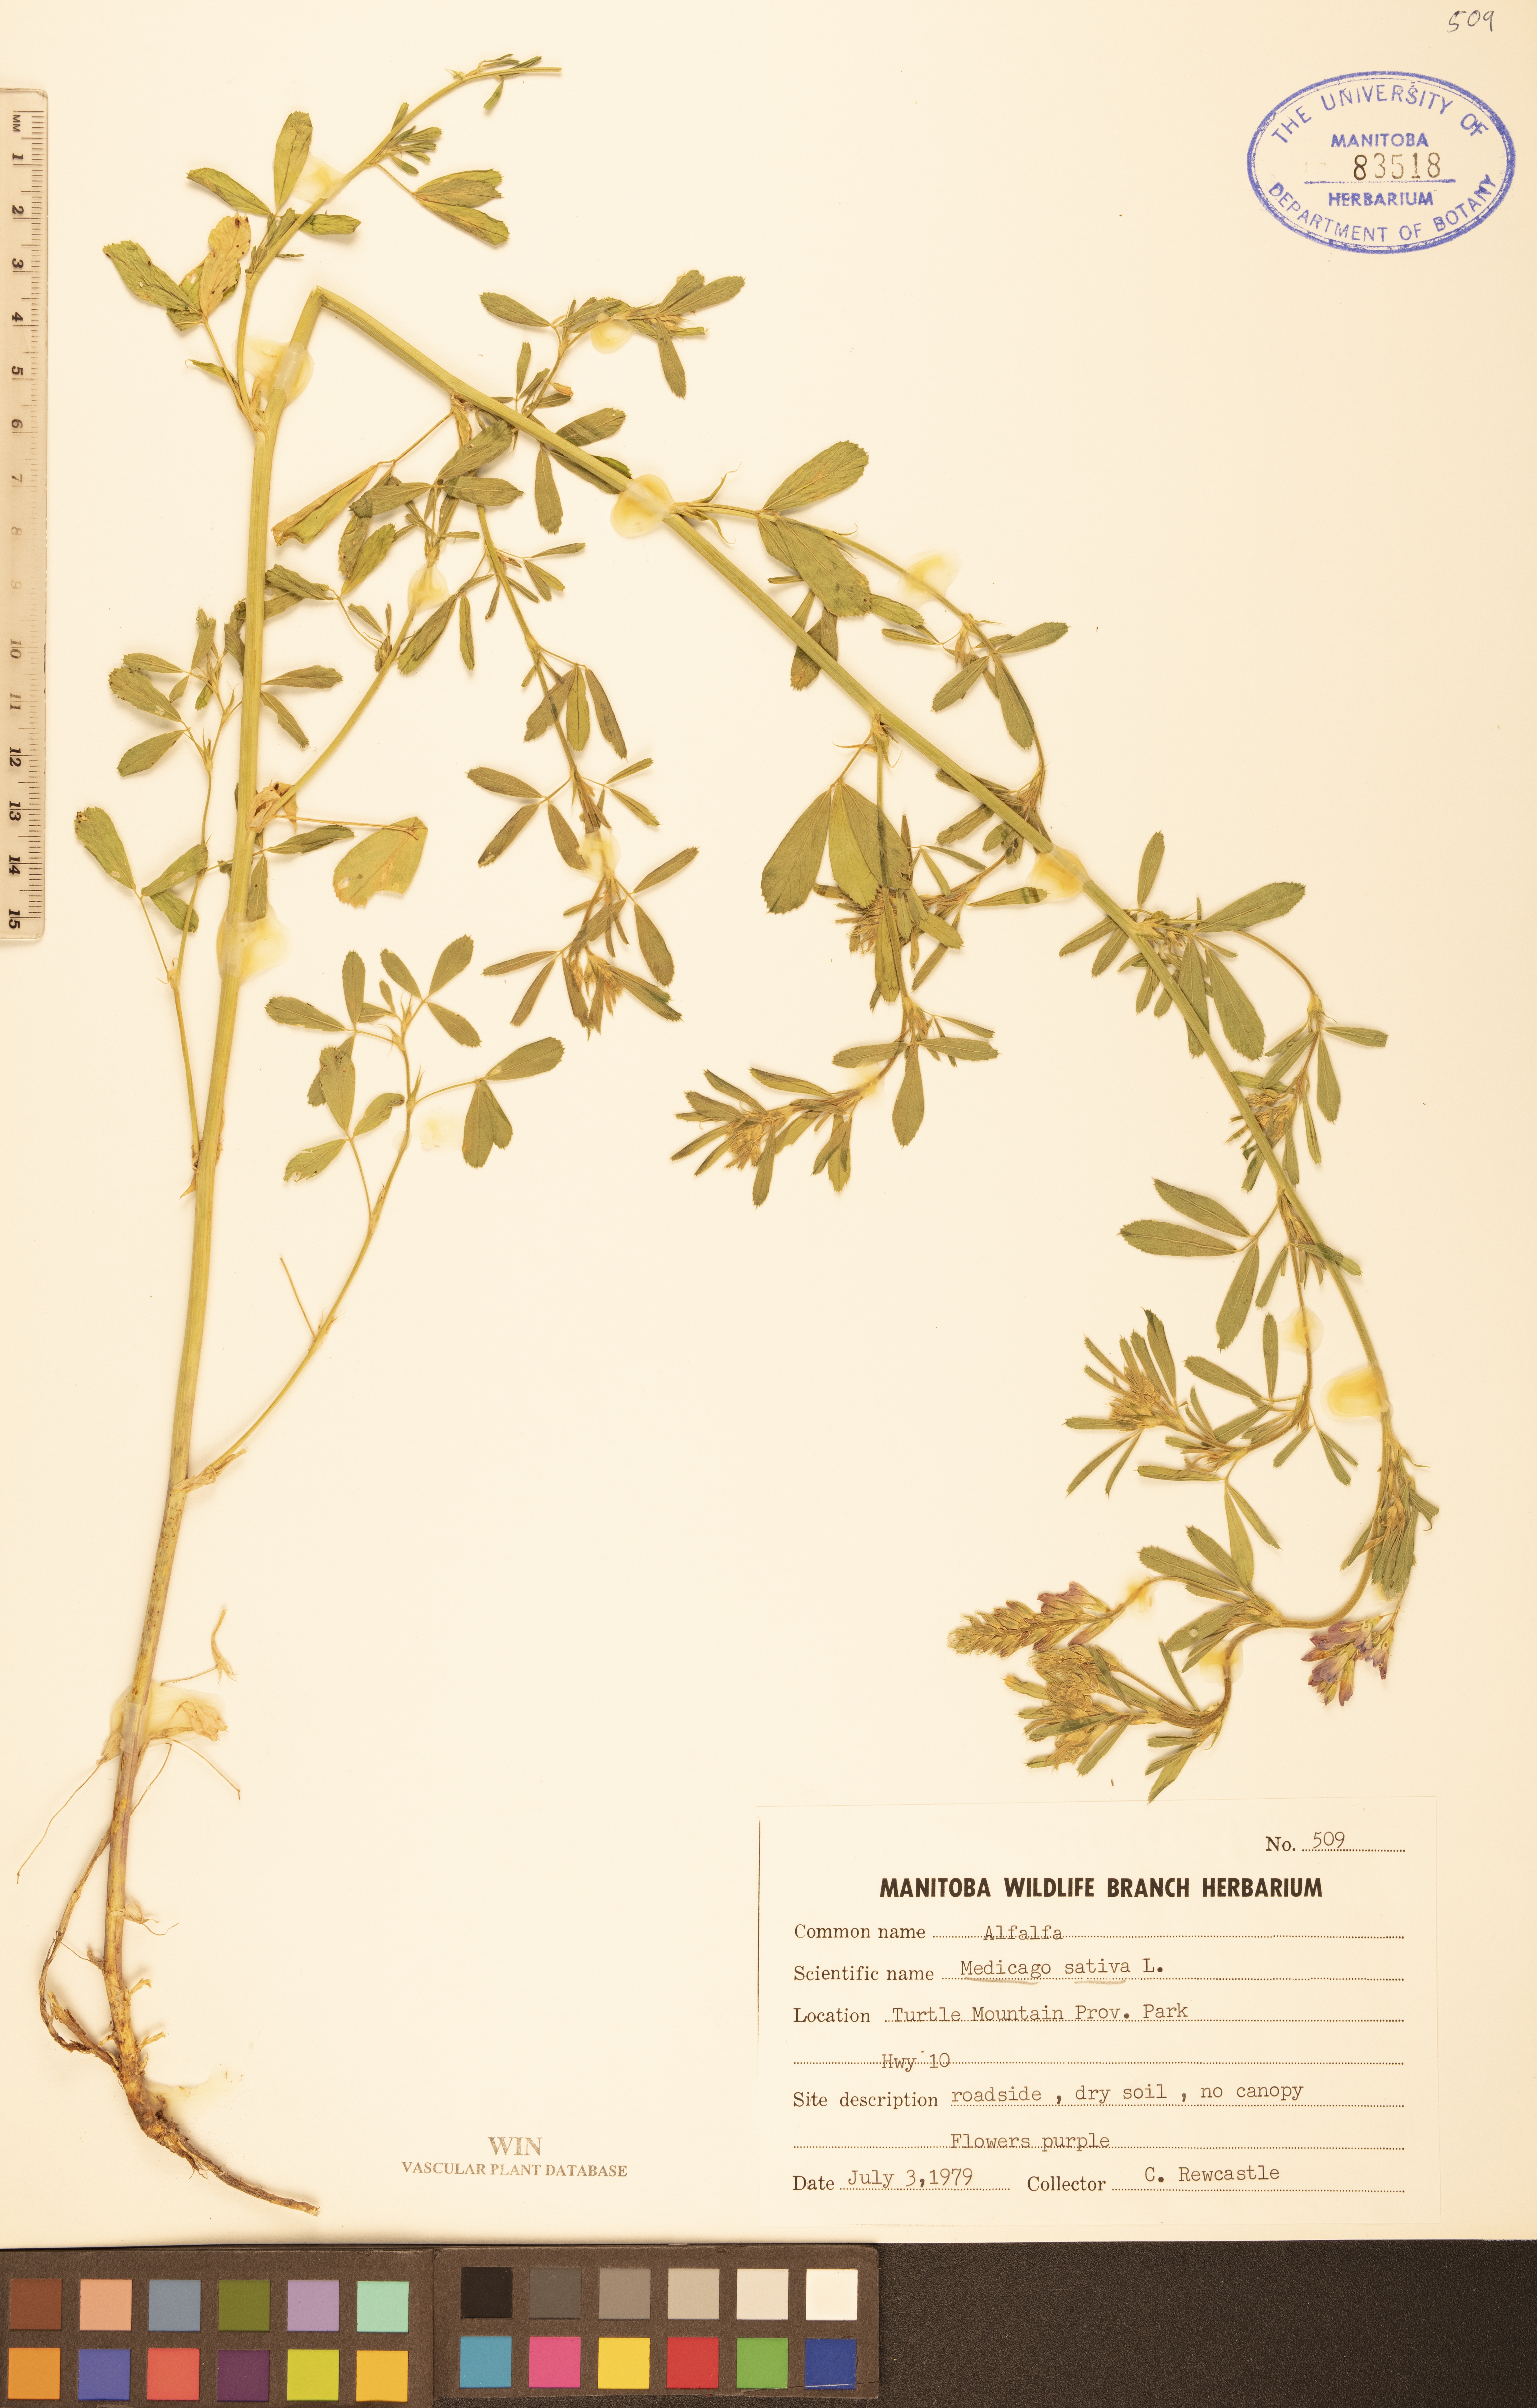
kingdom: Plantae
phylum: Tracheophyta
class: Magnoliopsida
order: Fabales
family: Fabaceae
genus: Medicago
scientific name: Medicago sativa
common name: Alfalfa
